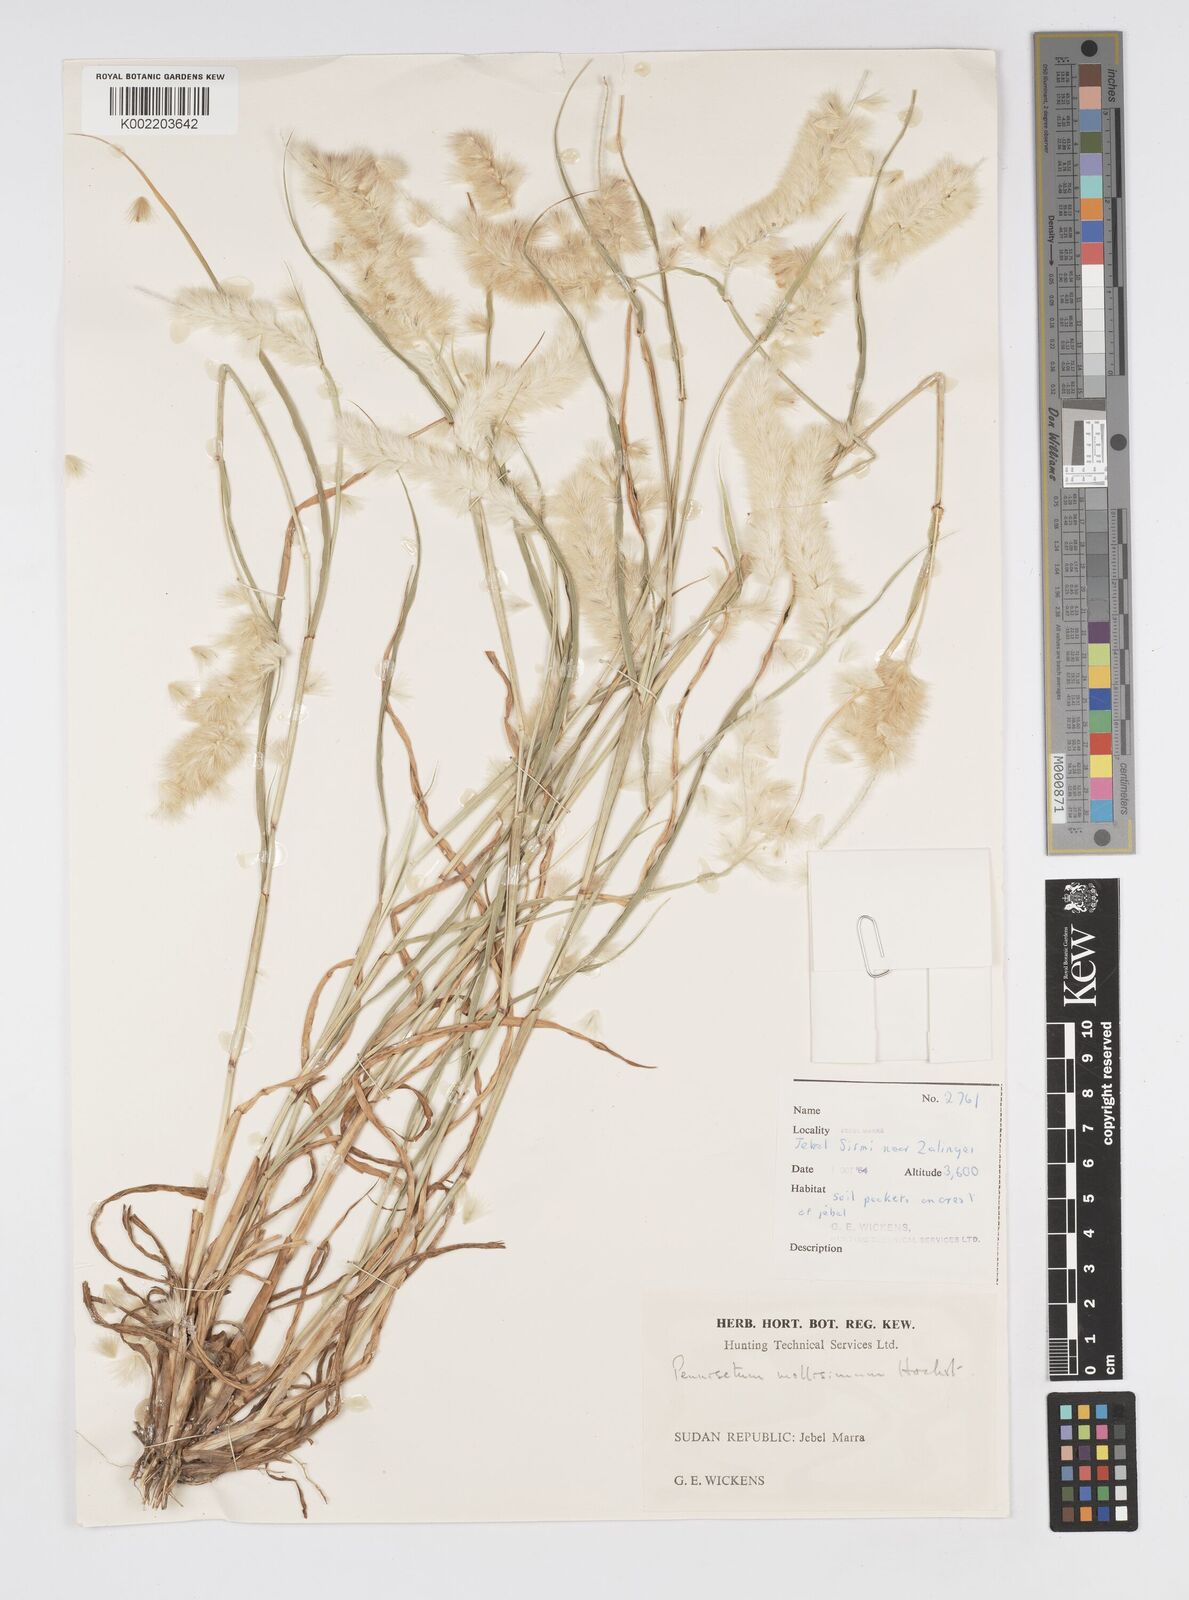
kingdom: Plantae
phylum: Tracheophyta
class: Liliopsida
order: Poales
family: Poaceae
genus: Cenchrus
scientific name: Cenchrus violaceus
